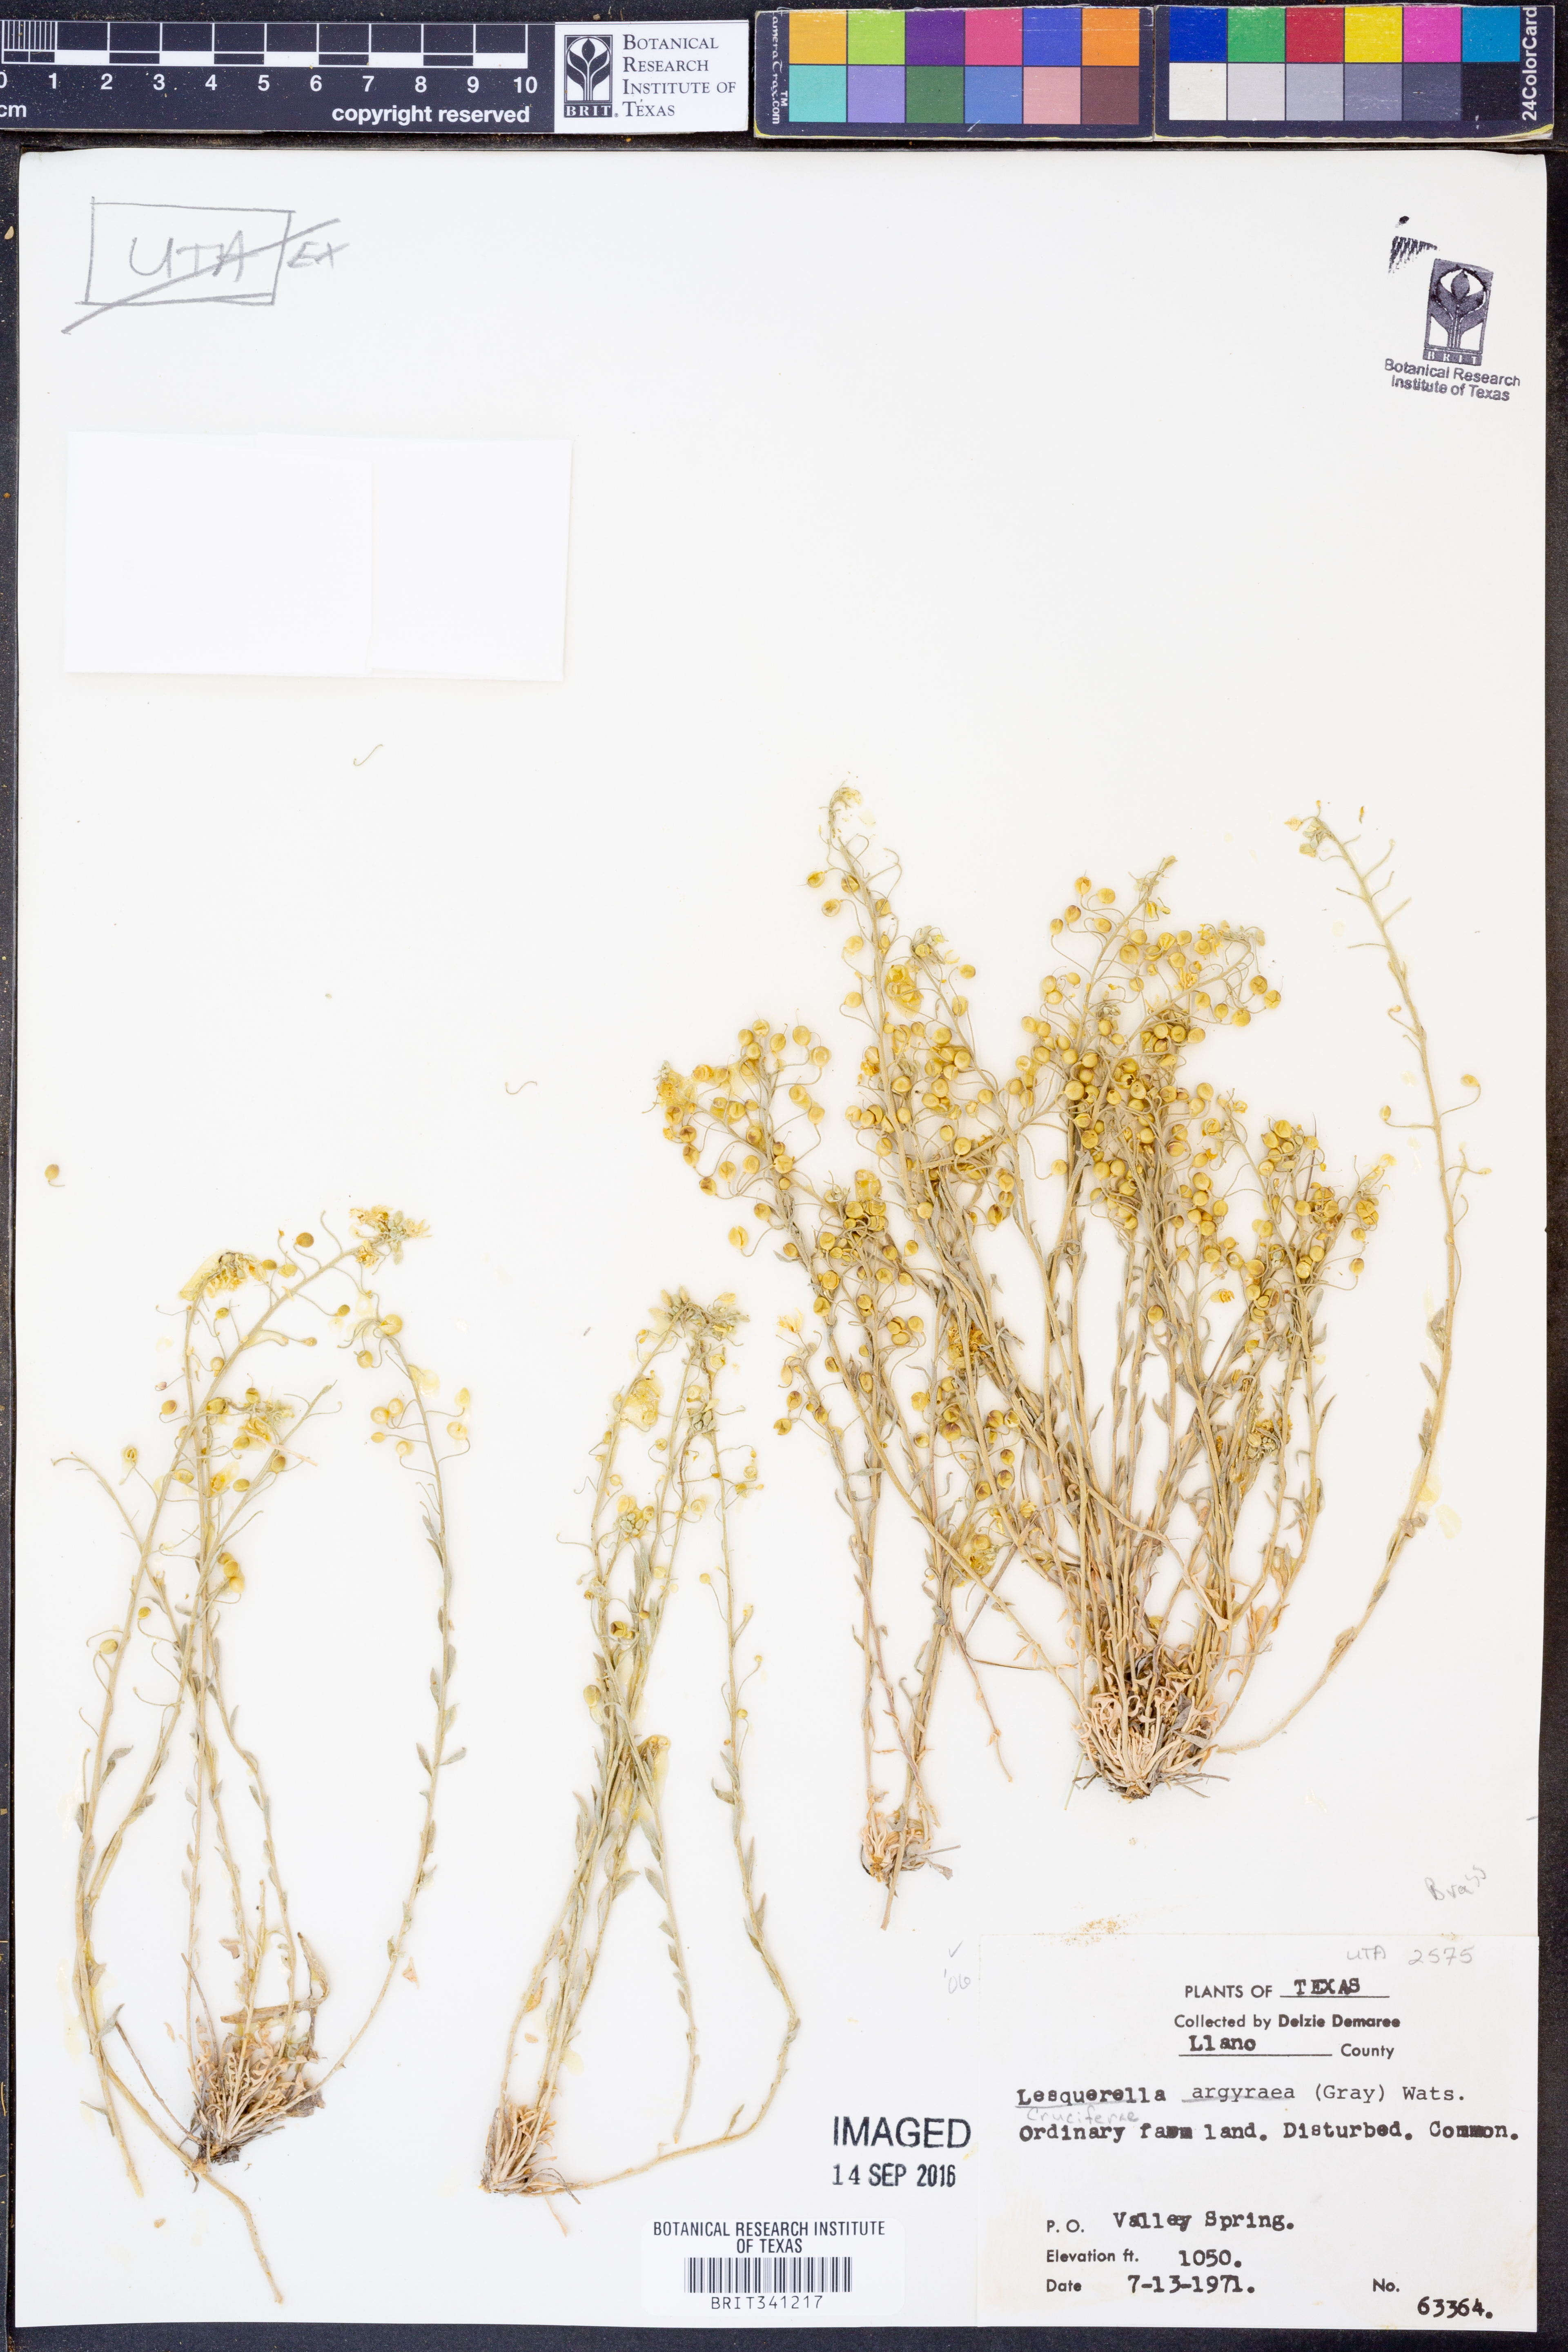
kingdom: Plantae
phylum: Tracheophyta
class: Magnoliopsida
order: Brassicales
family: Brassicaceae
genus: Physaria
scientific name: Physaria argyraea
